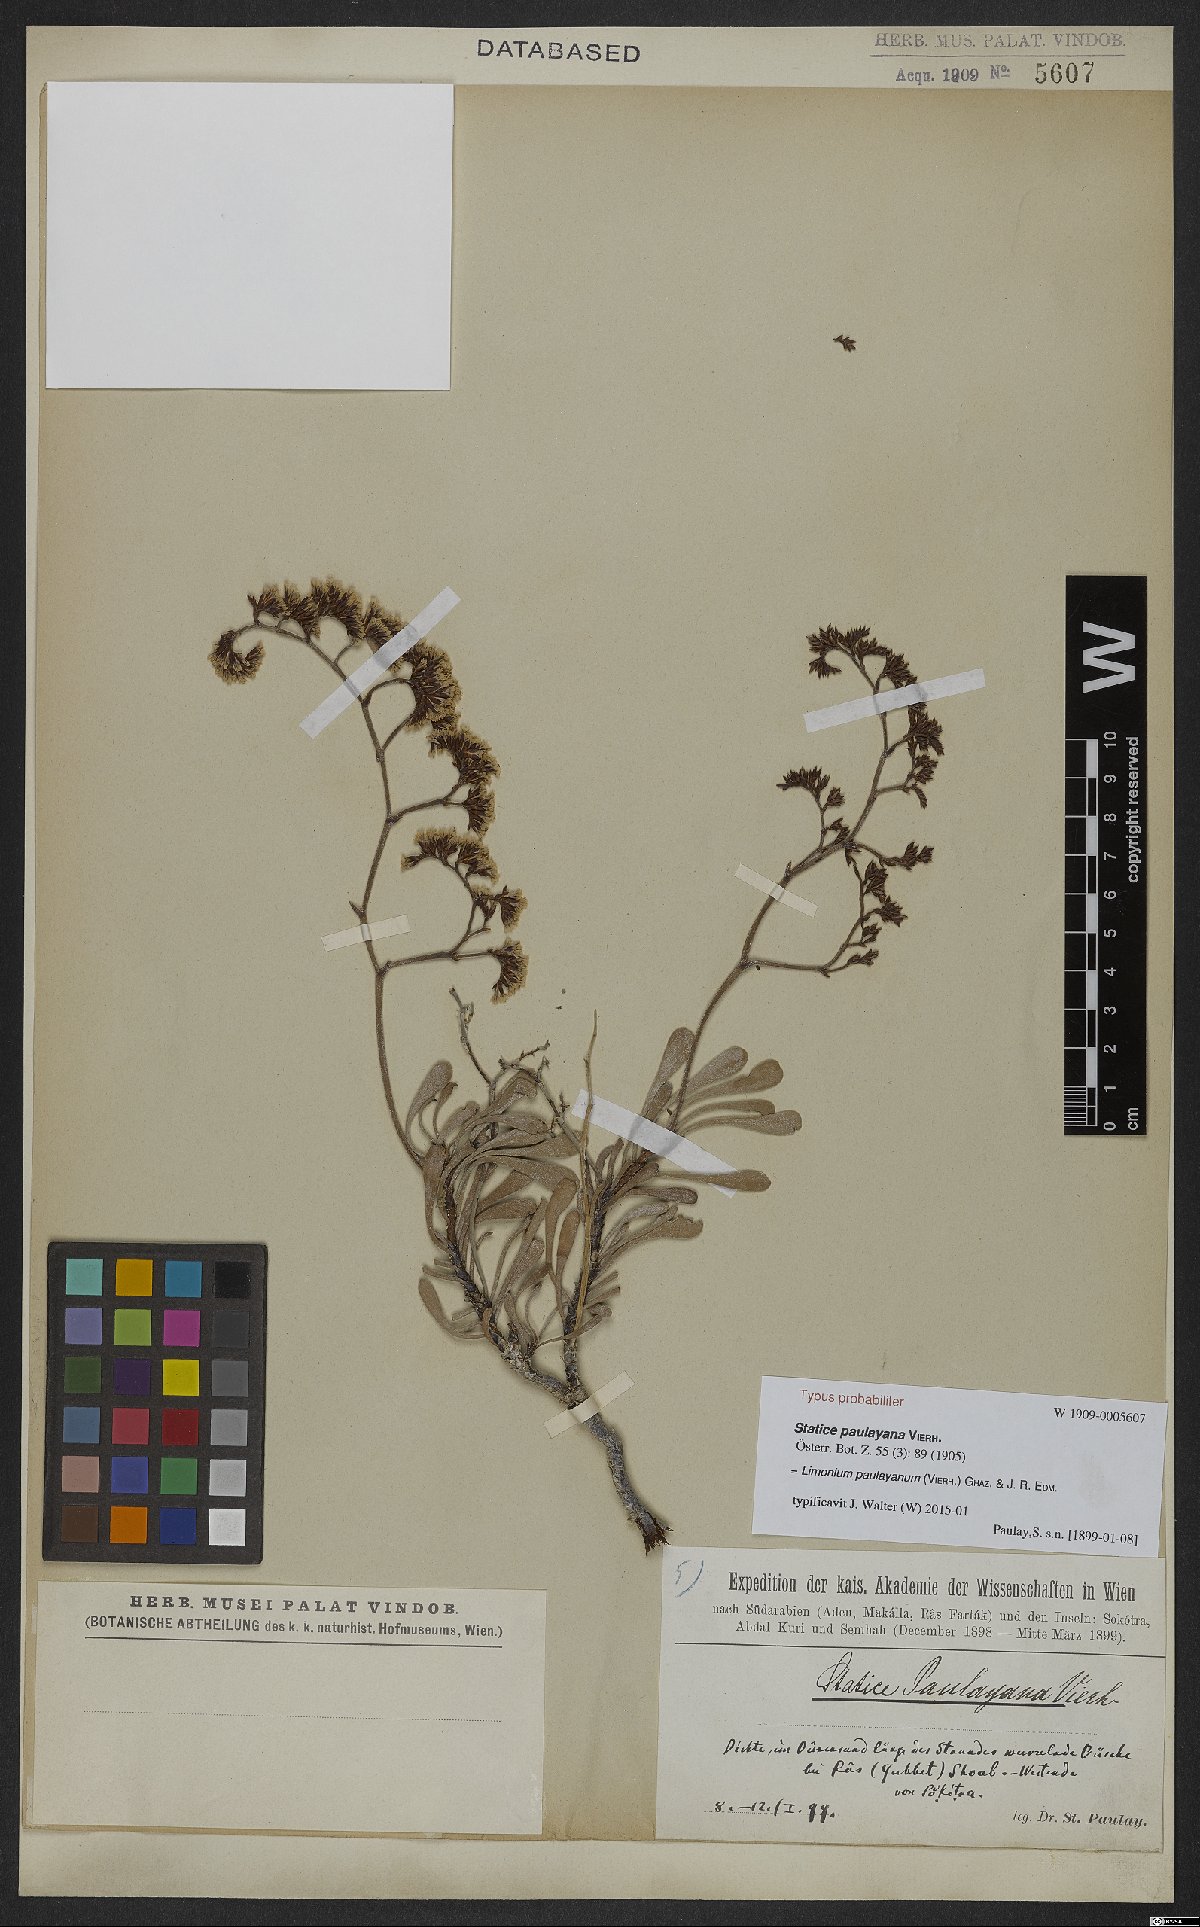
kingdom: Plantae
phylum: Tracheophyta
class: Magnoliopsida
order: Caryophyllales
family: Plumbaginaceae
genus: Limonium
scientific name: Limonium paulayanum
